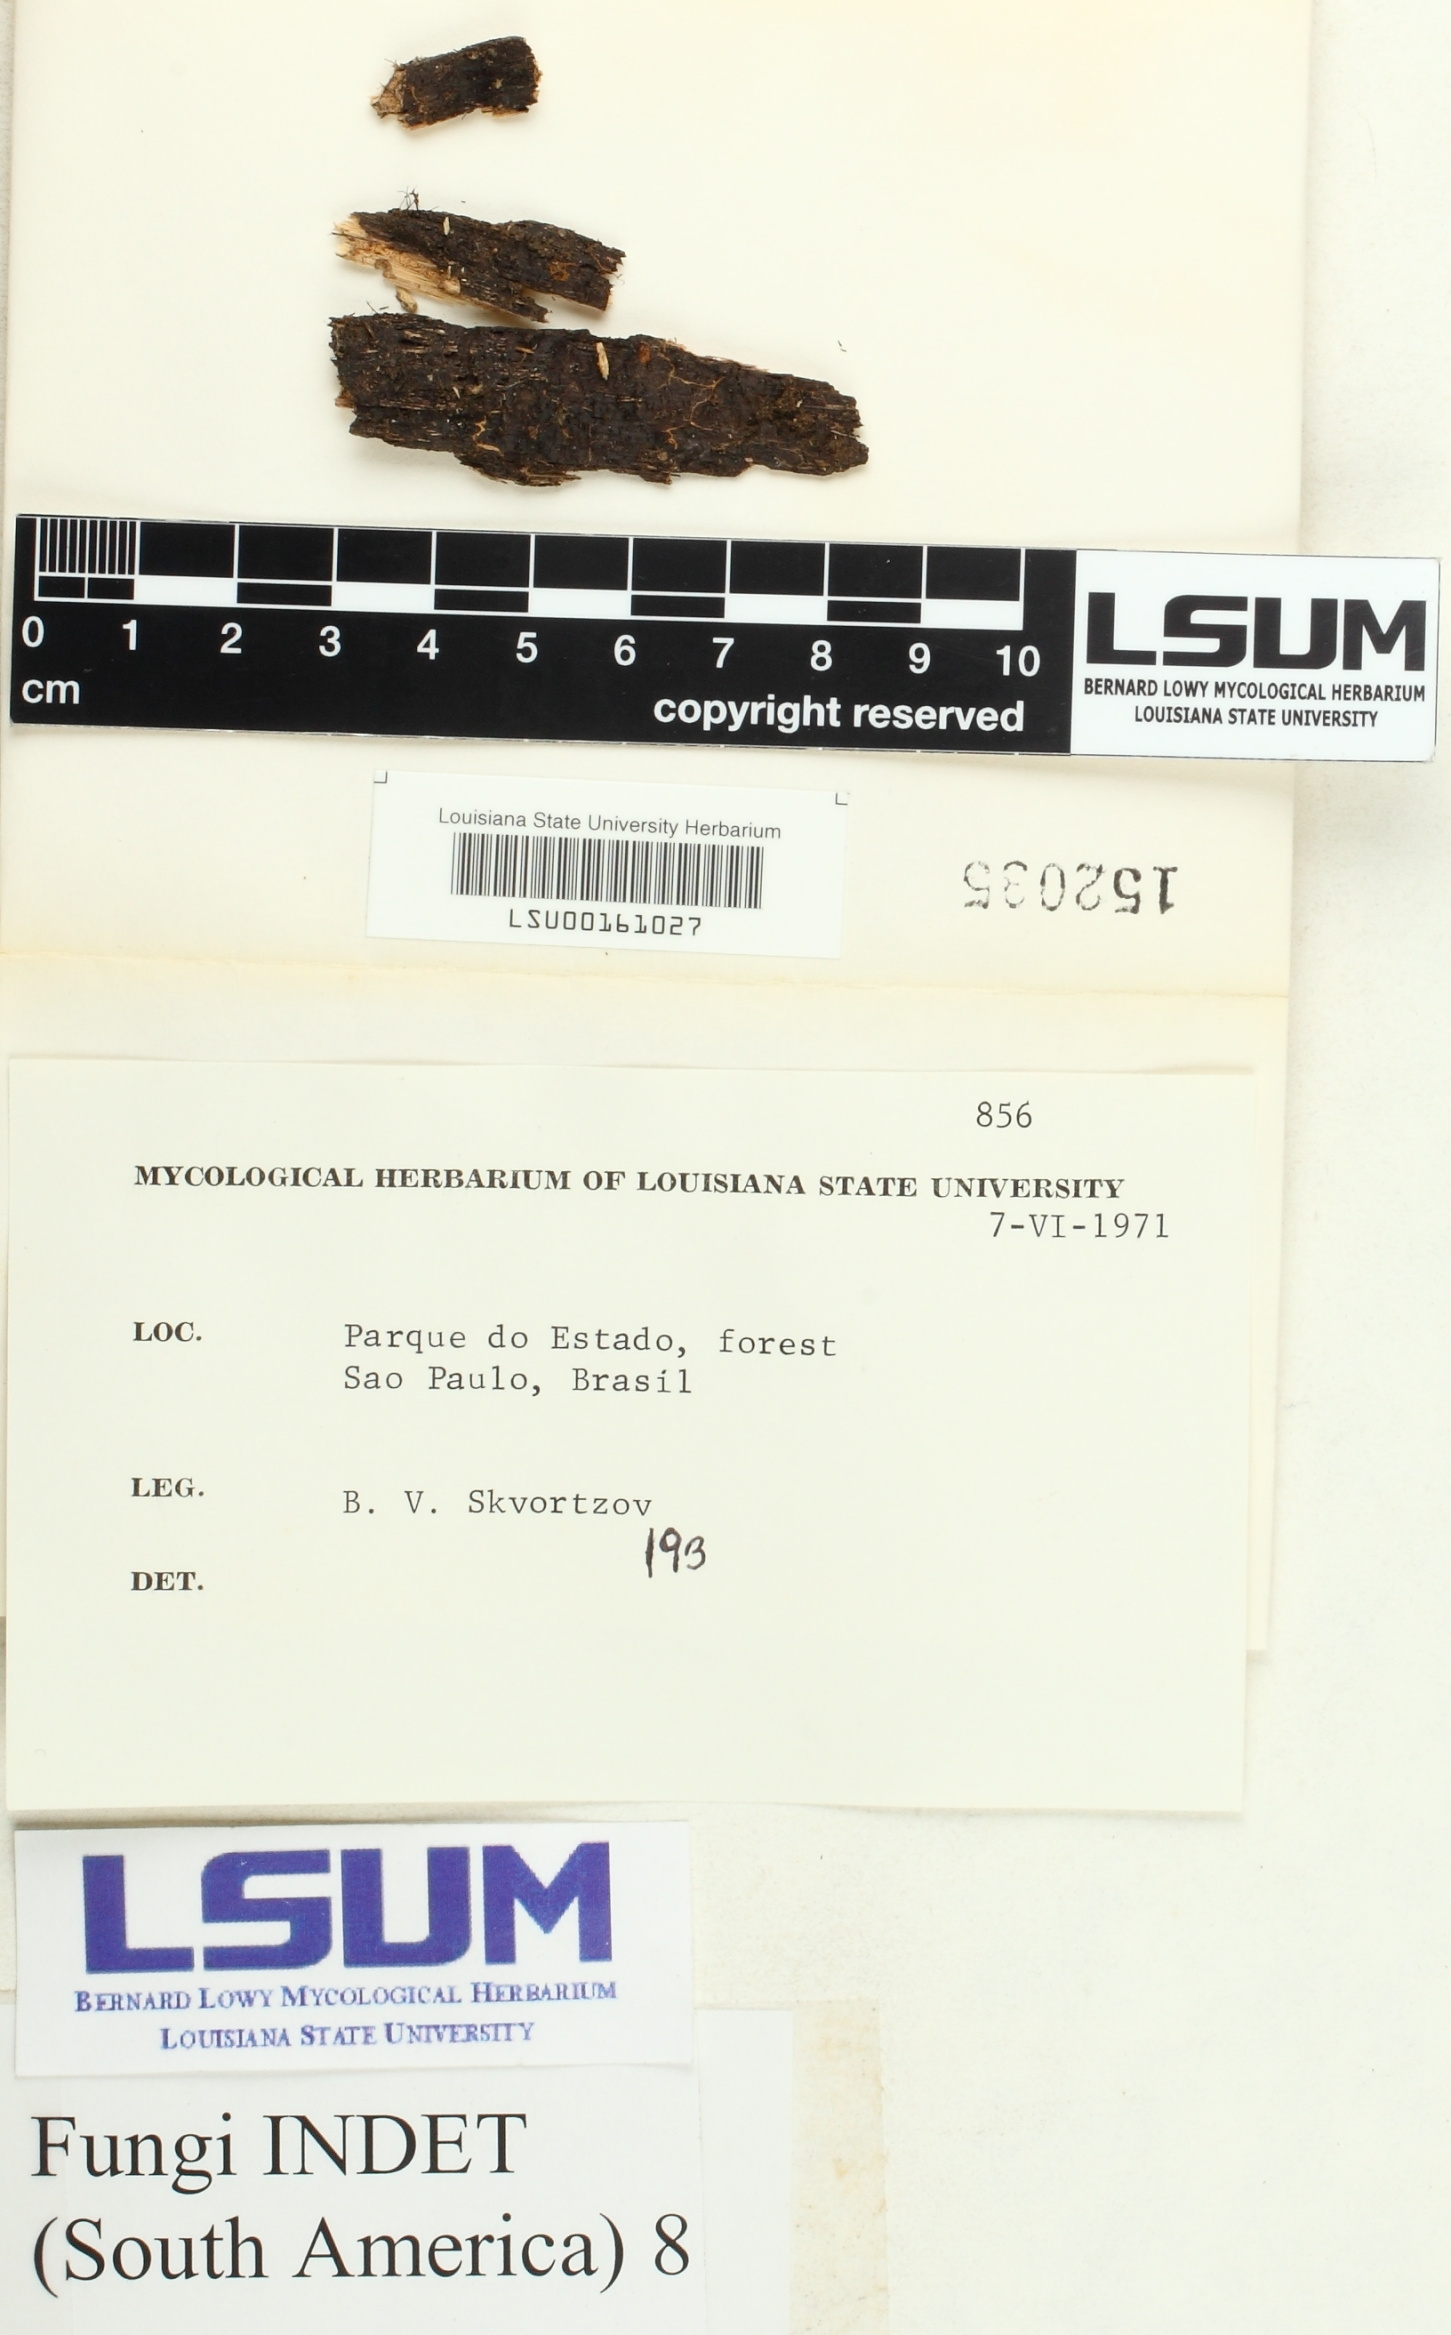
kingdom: Fungi
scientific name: Fungi
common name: Fungi
